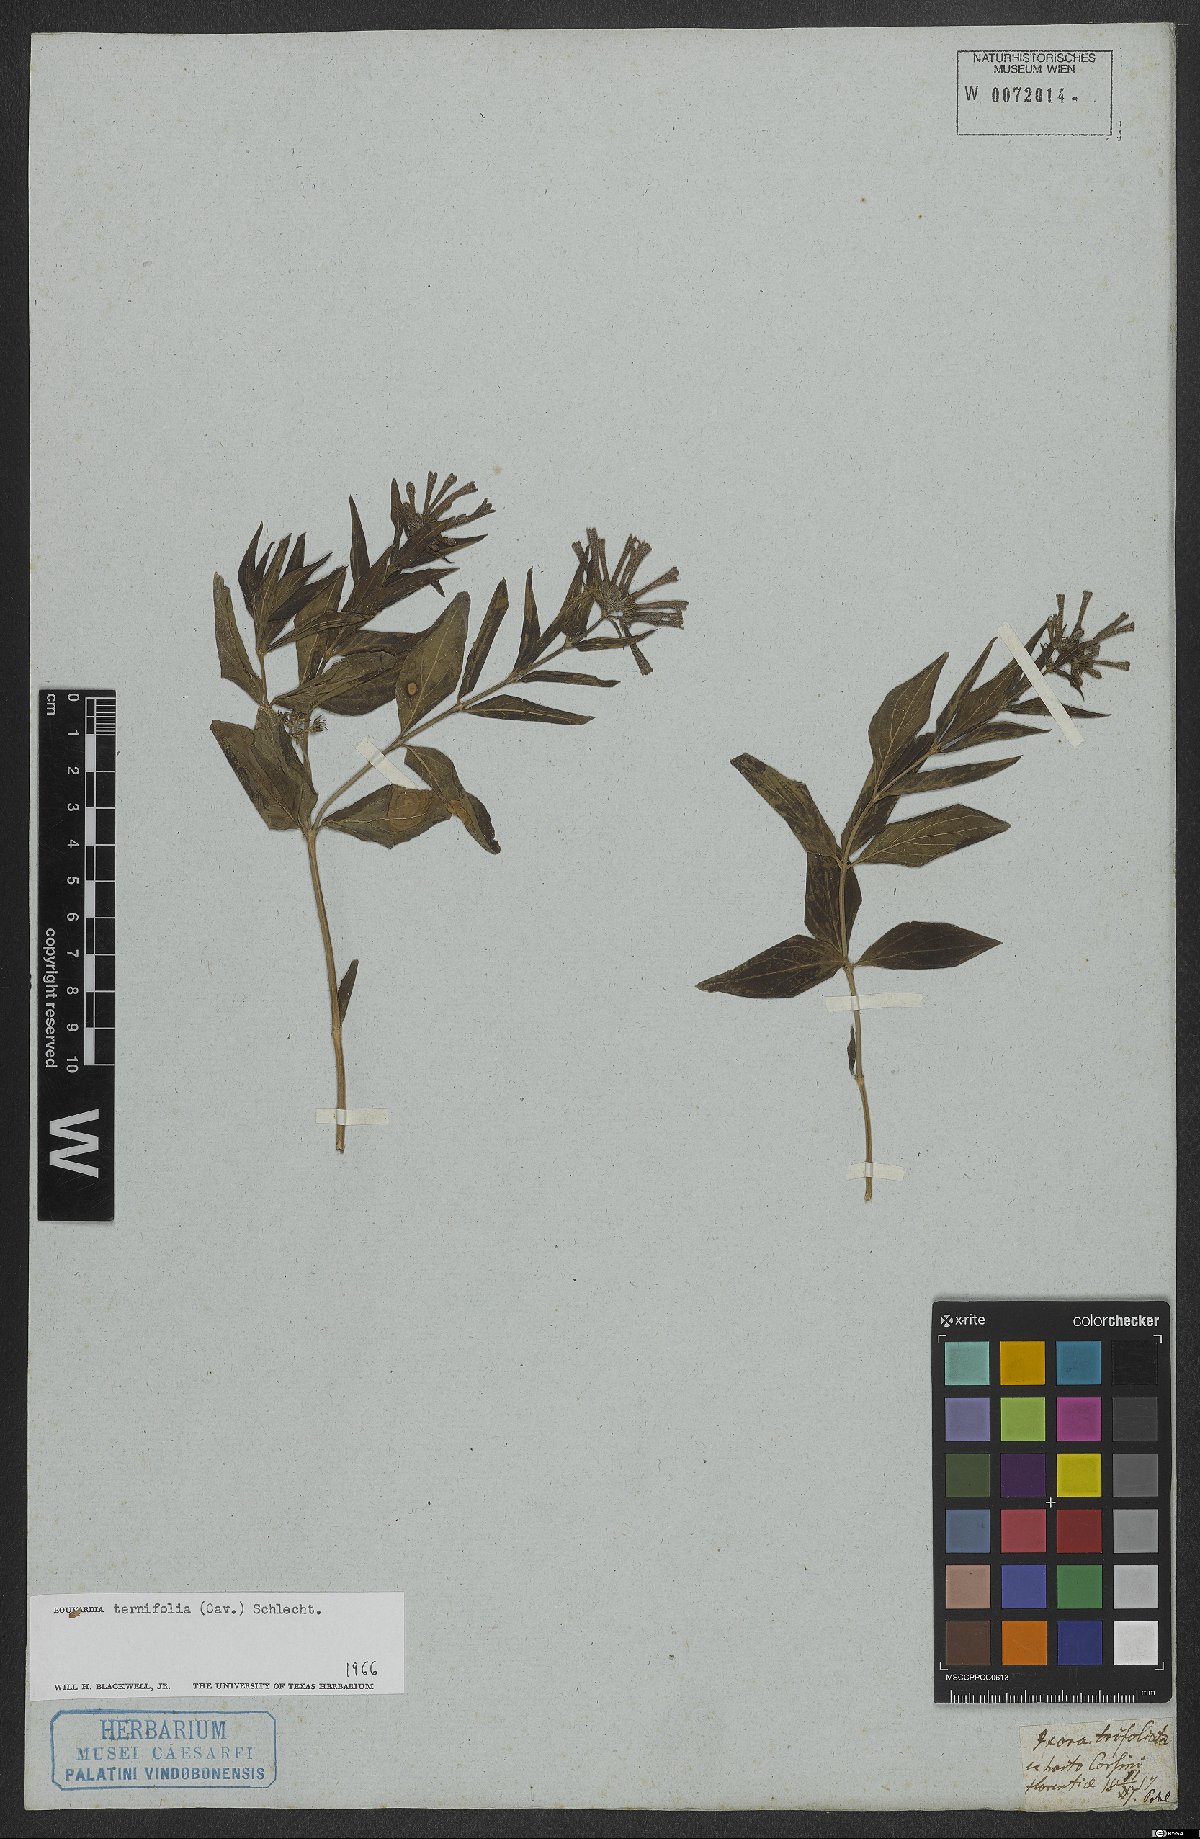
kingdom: Plantae
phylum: Tracheophyta
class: Magnoliopsida
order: Gentianales
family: Rubiaceae
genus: Bouvardia
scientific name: Bouvardia ternifolia
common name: Scarlet bouvardia
